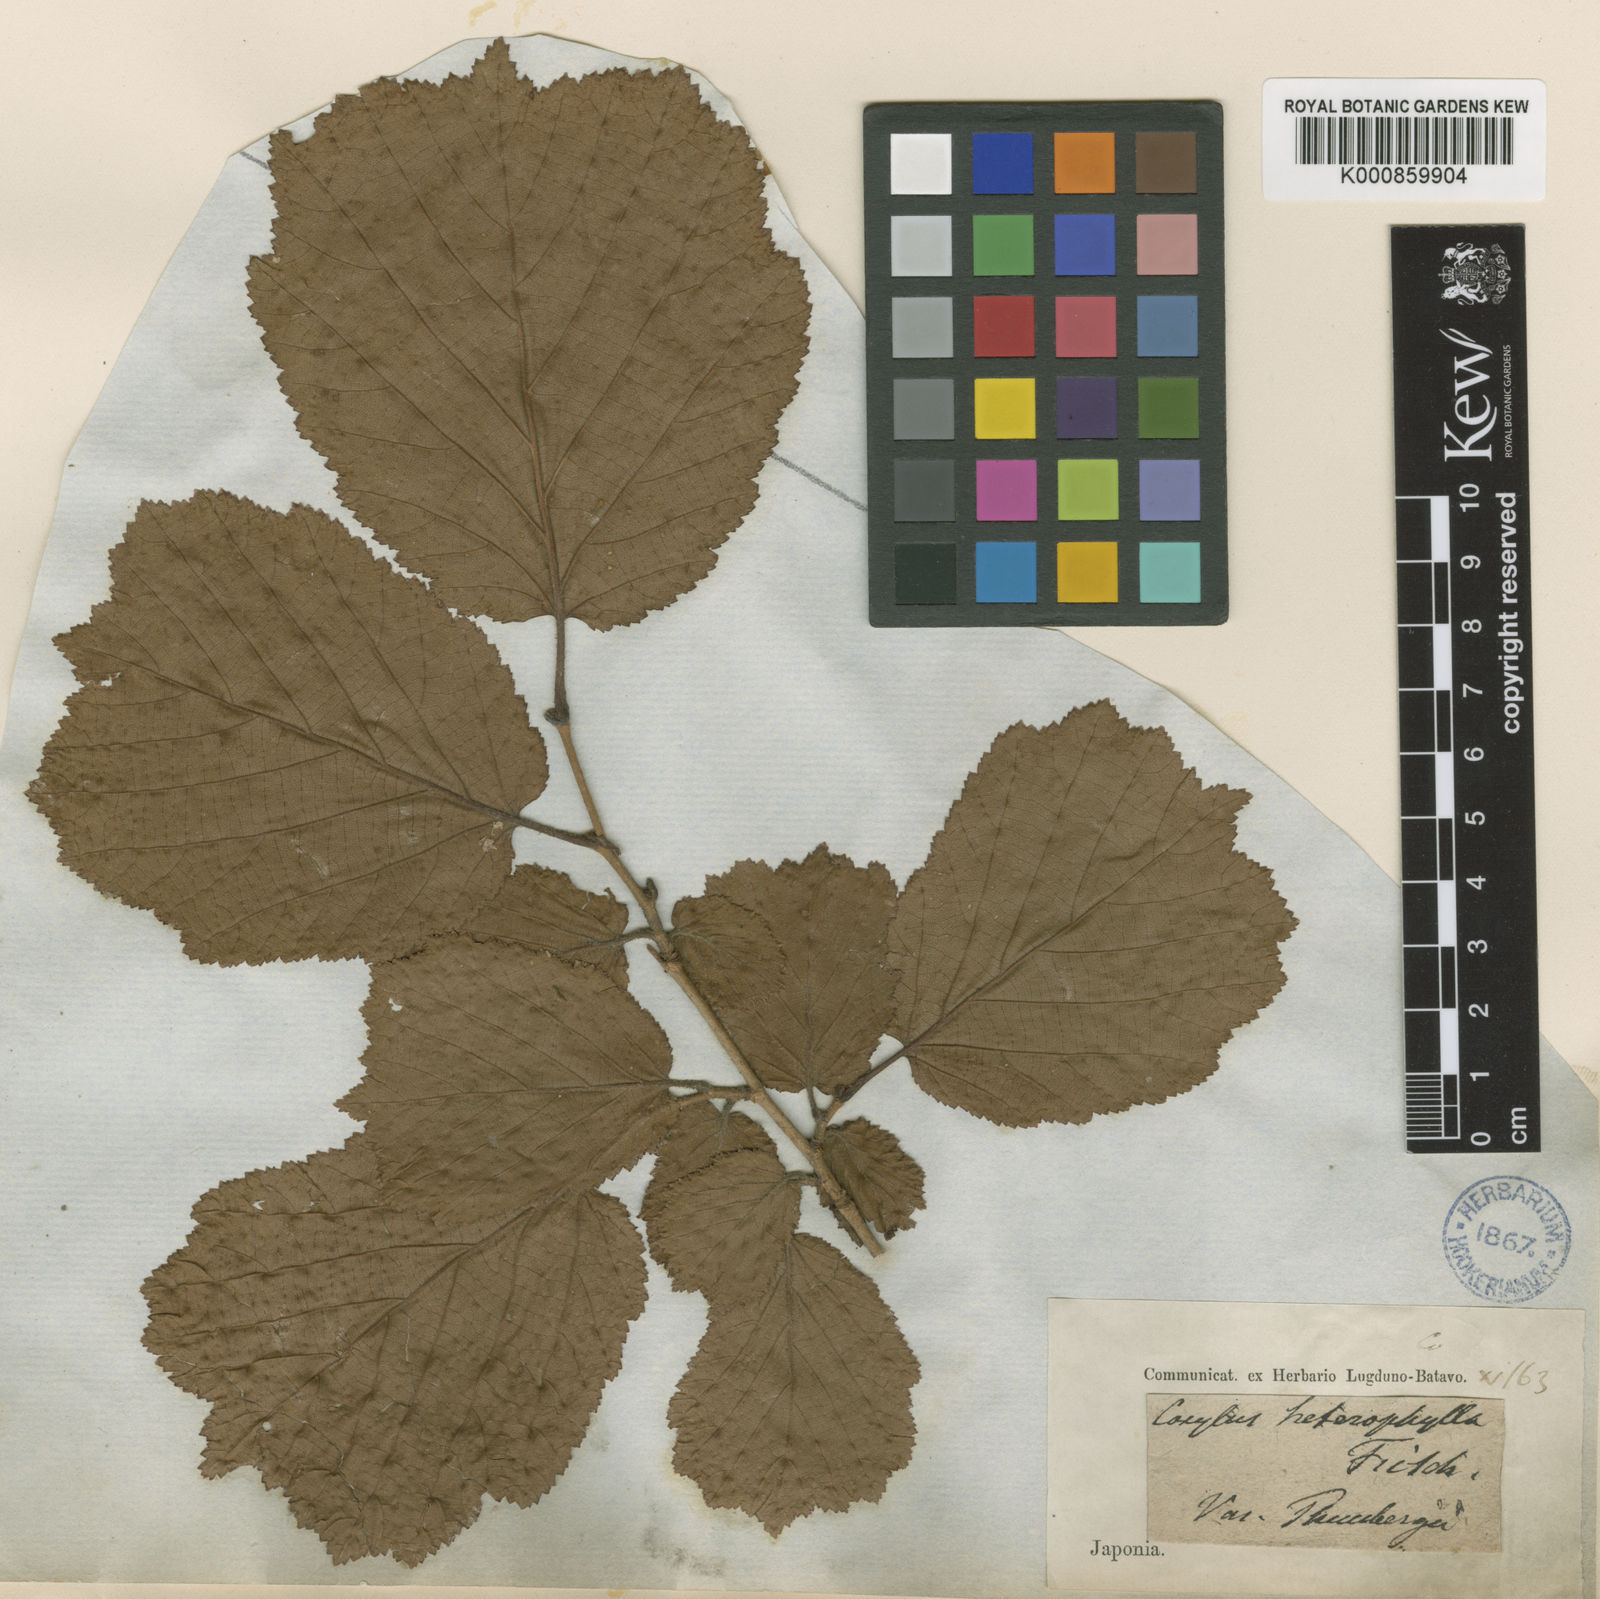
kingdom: Plantae
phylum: Tracheophyta
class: Magnoliopsida
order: Fagales
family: Betulaceae
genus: Corylus
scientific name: Corylus heterophylla
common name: Siberian hazelnut
